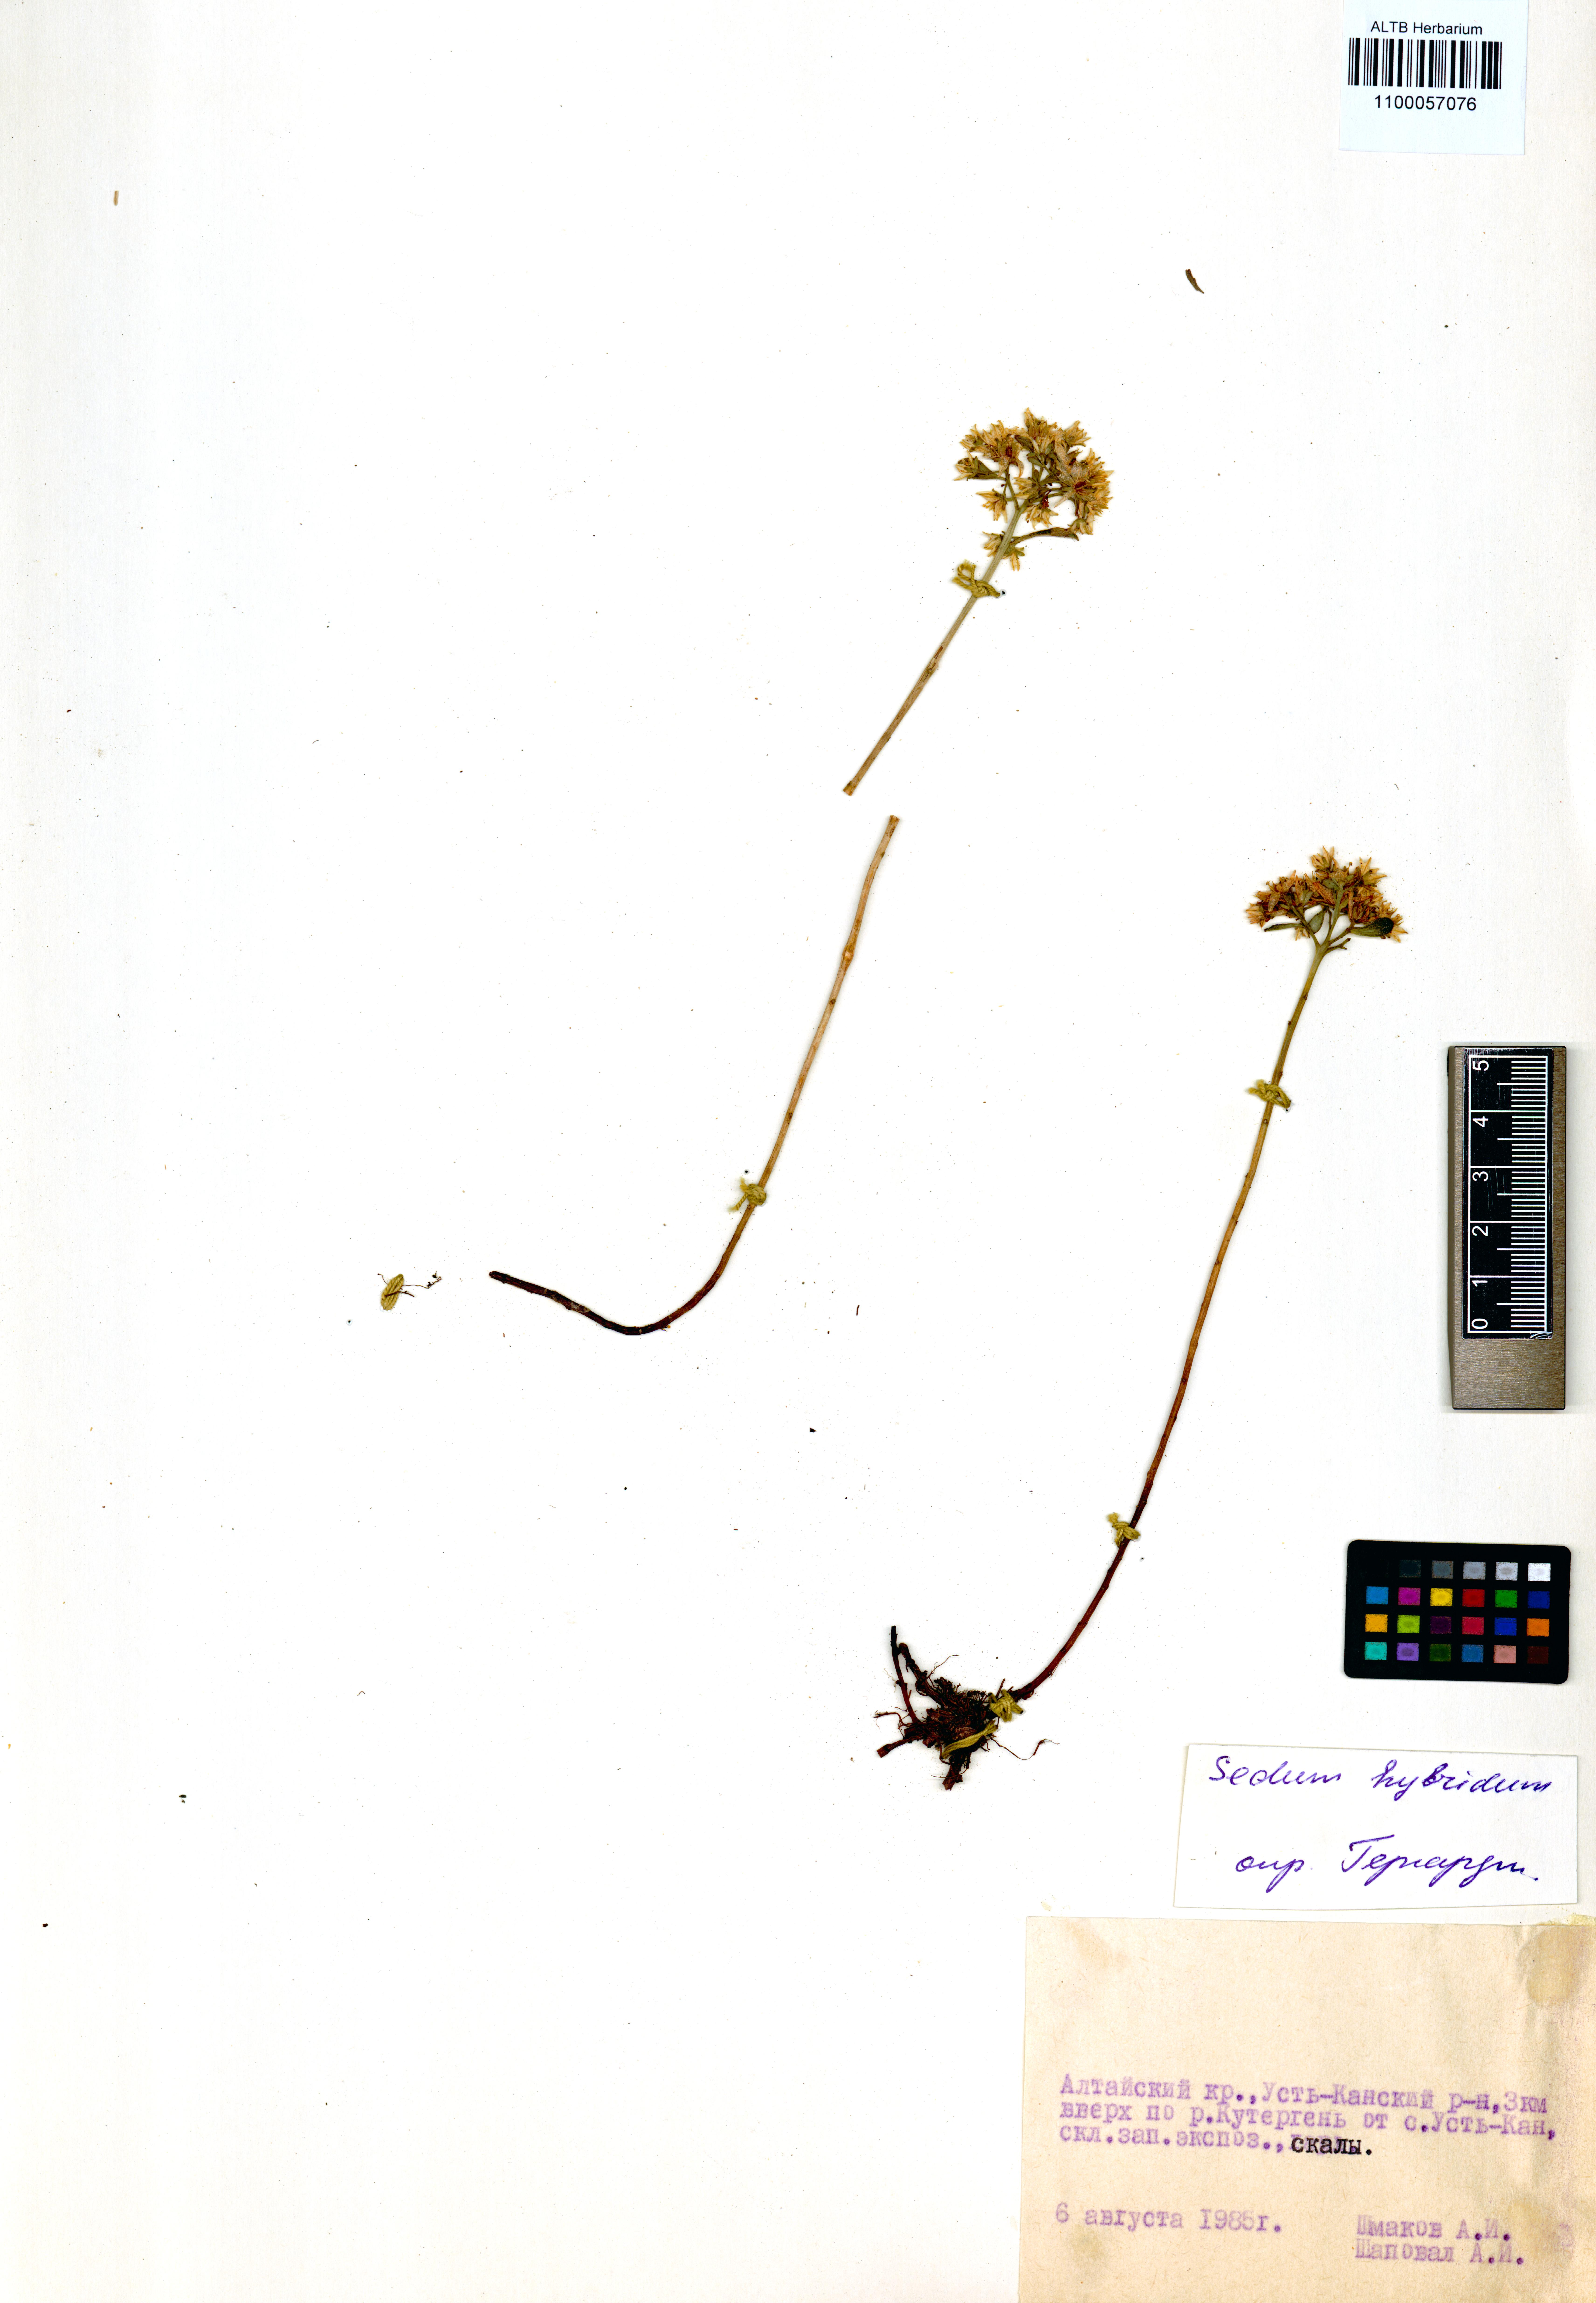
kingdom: Plantae
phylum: Tracheophyta
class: Magnoliopsida
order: Saxifragales
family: Crassulaceae
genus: Phedimus
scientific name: Phedimus hybridus
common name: Hybrid stonecrop
